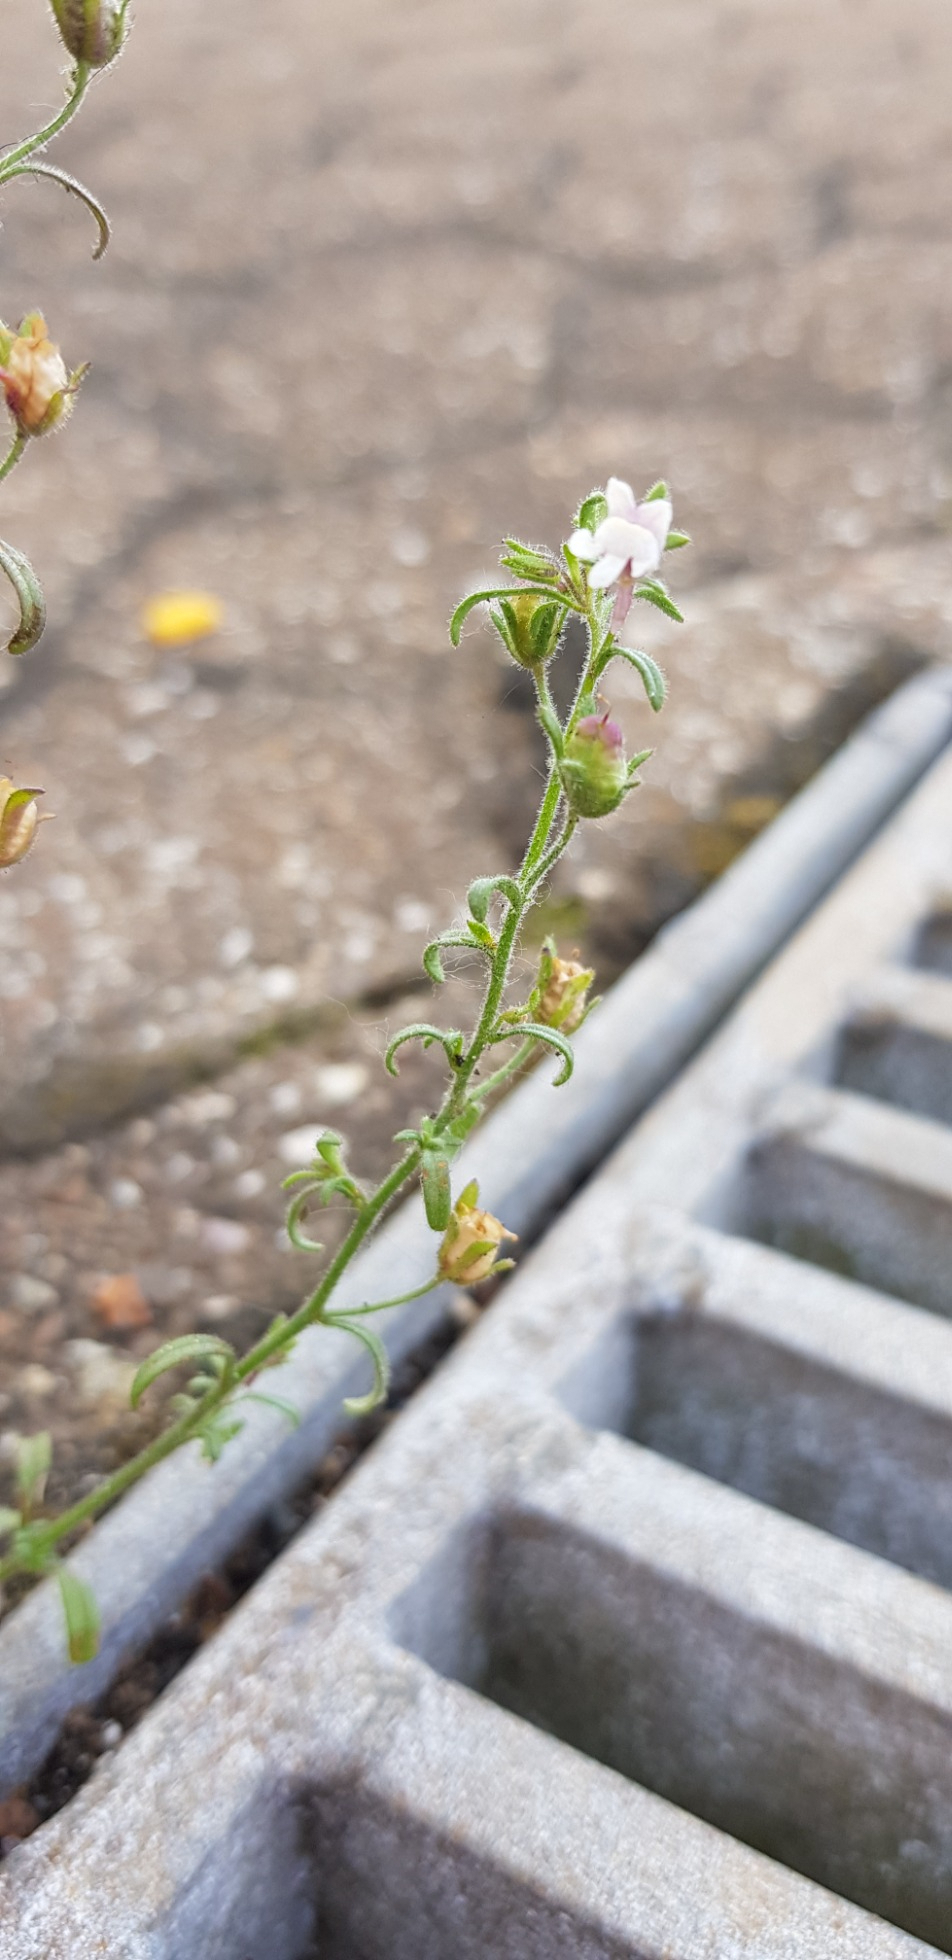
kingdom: Plantae
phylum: Tracheophyta
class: Magnoliopsida
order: Lamiales
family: Plantaginaceae
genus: Chaenorhinum
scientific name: Chaenorhinum minus
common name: Liden torskemund
